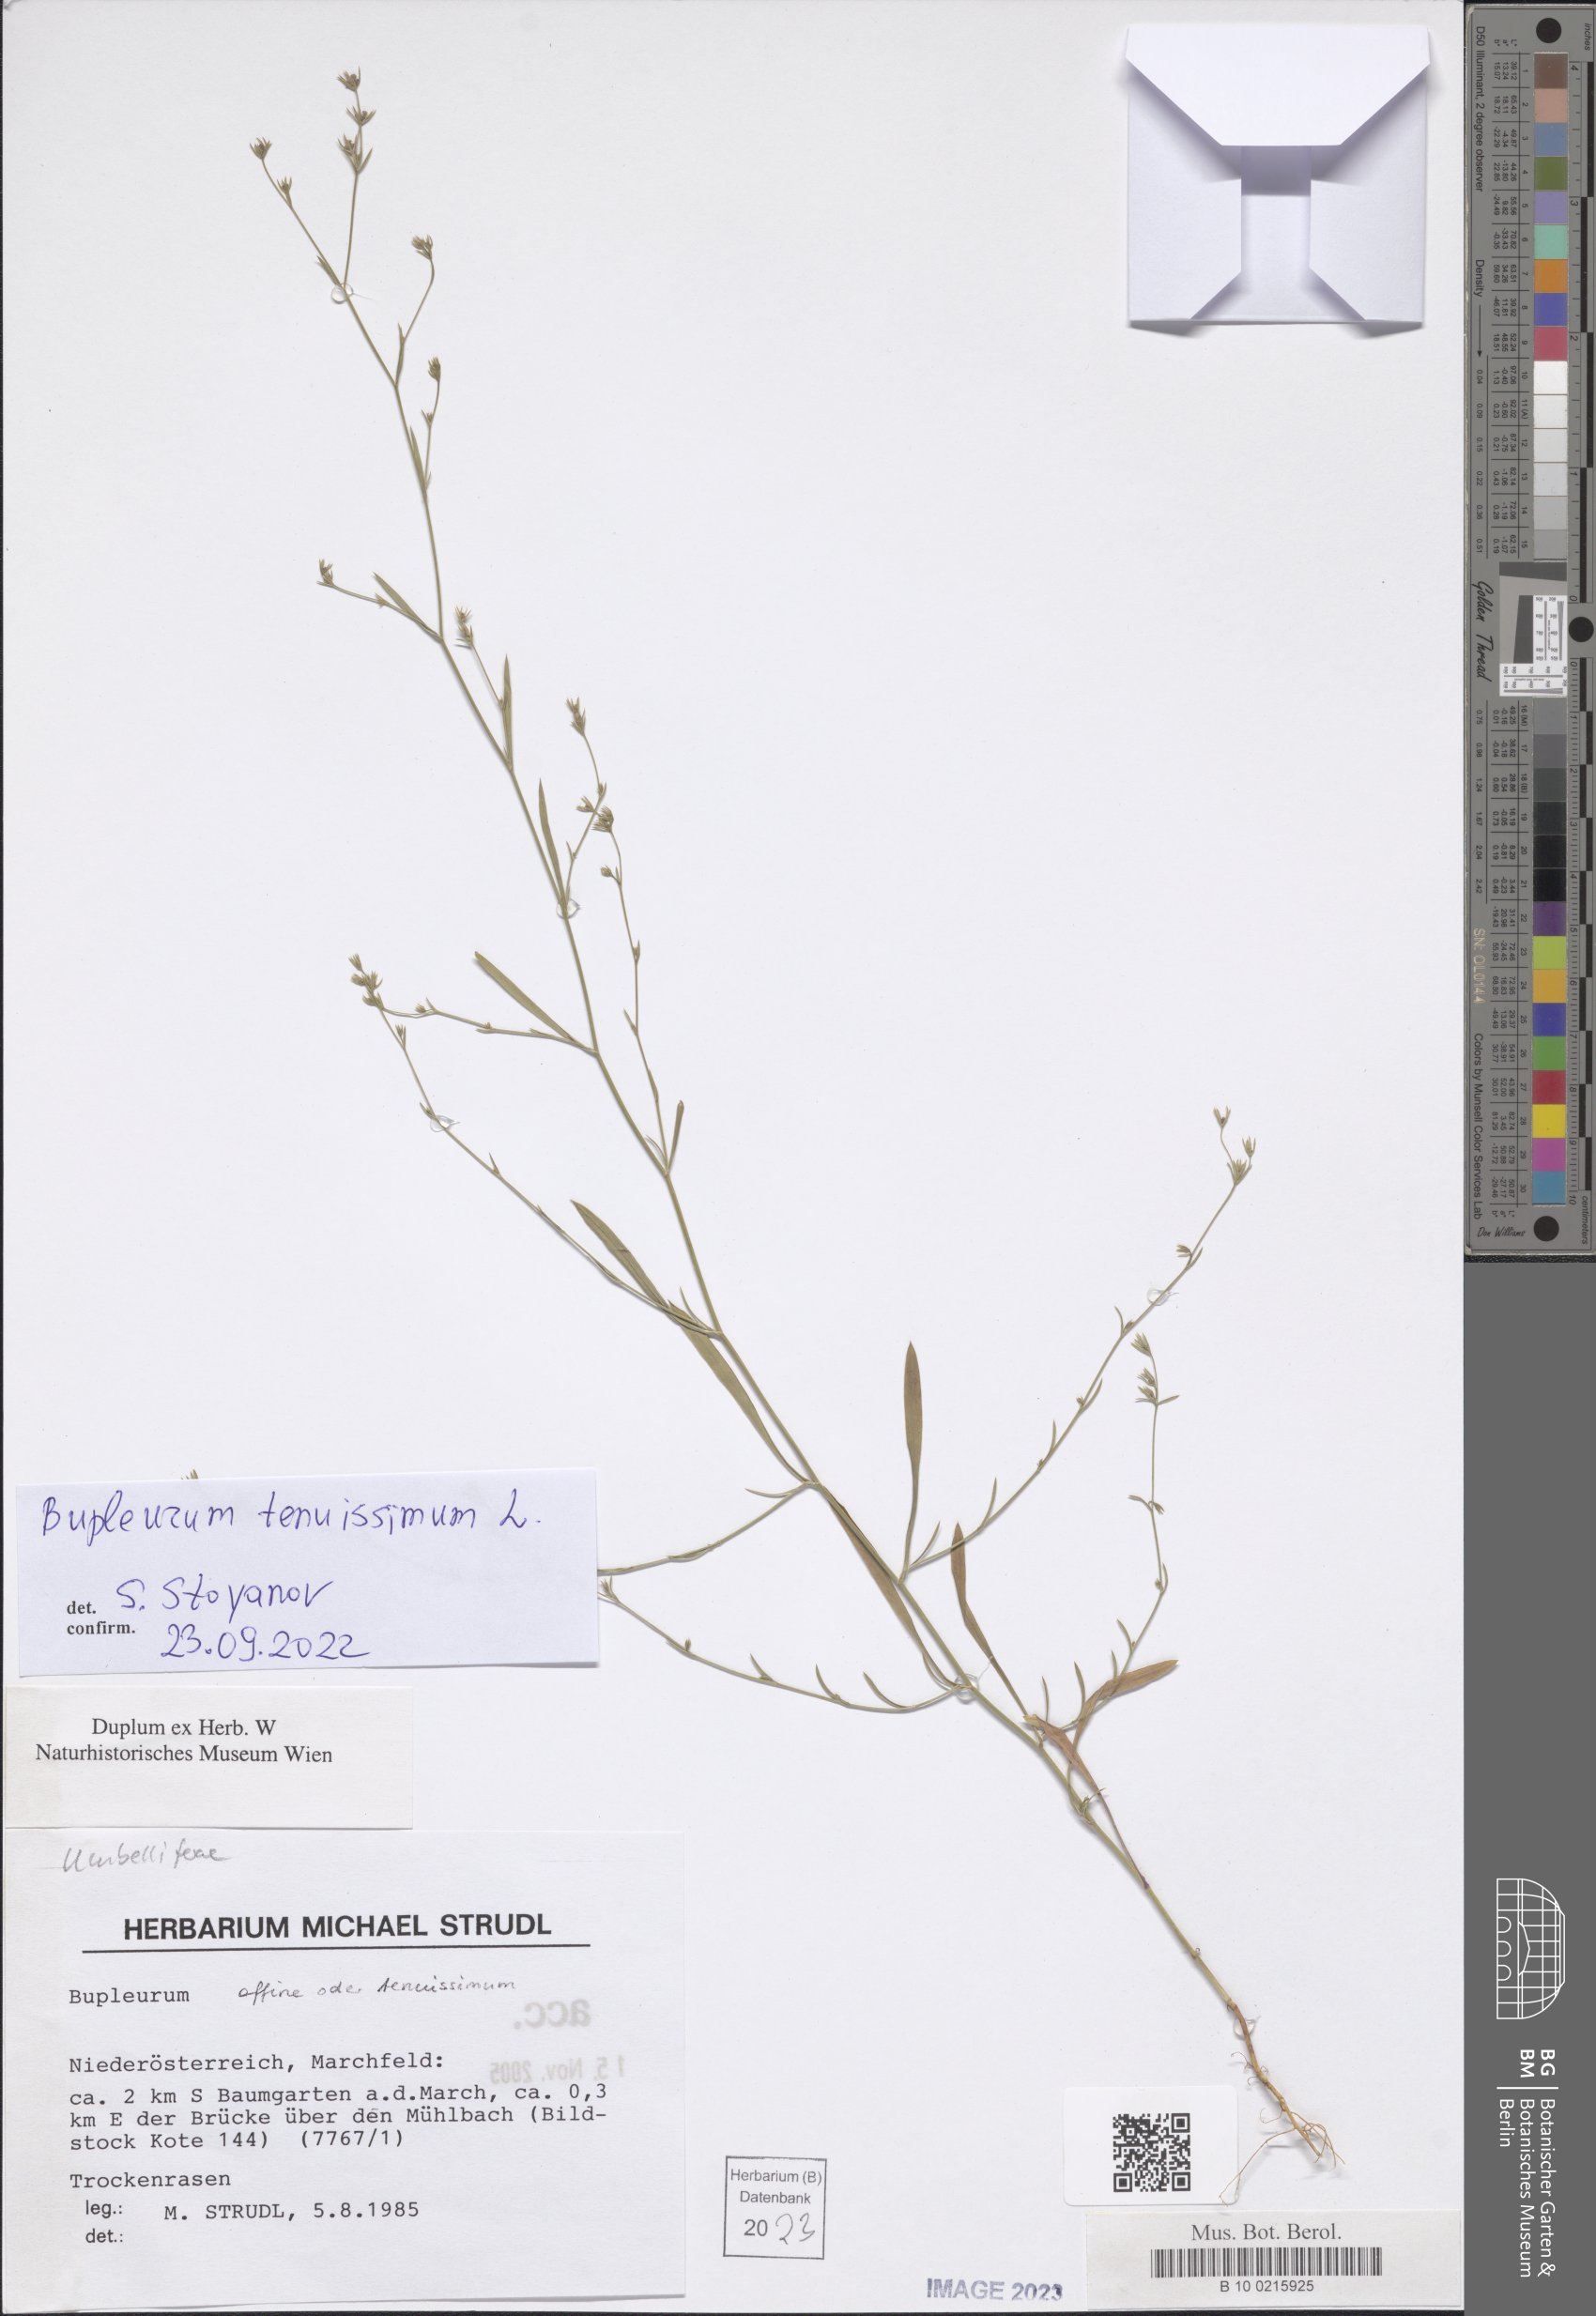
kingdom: Plantae
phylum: Tracheophyta
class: Magnoliopsida
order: Apiales
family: Apiaceae
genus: Bupleurum
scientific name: Bupleurum tenuissimum
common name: Slender hare's-ear
